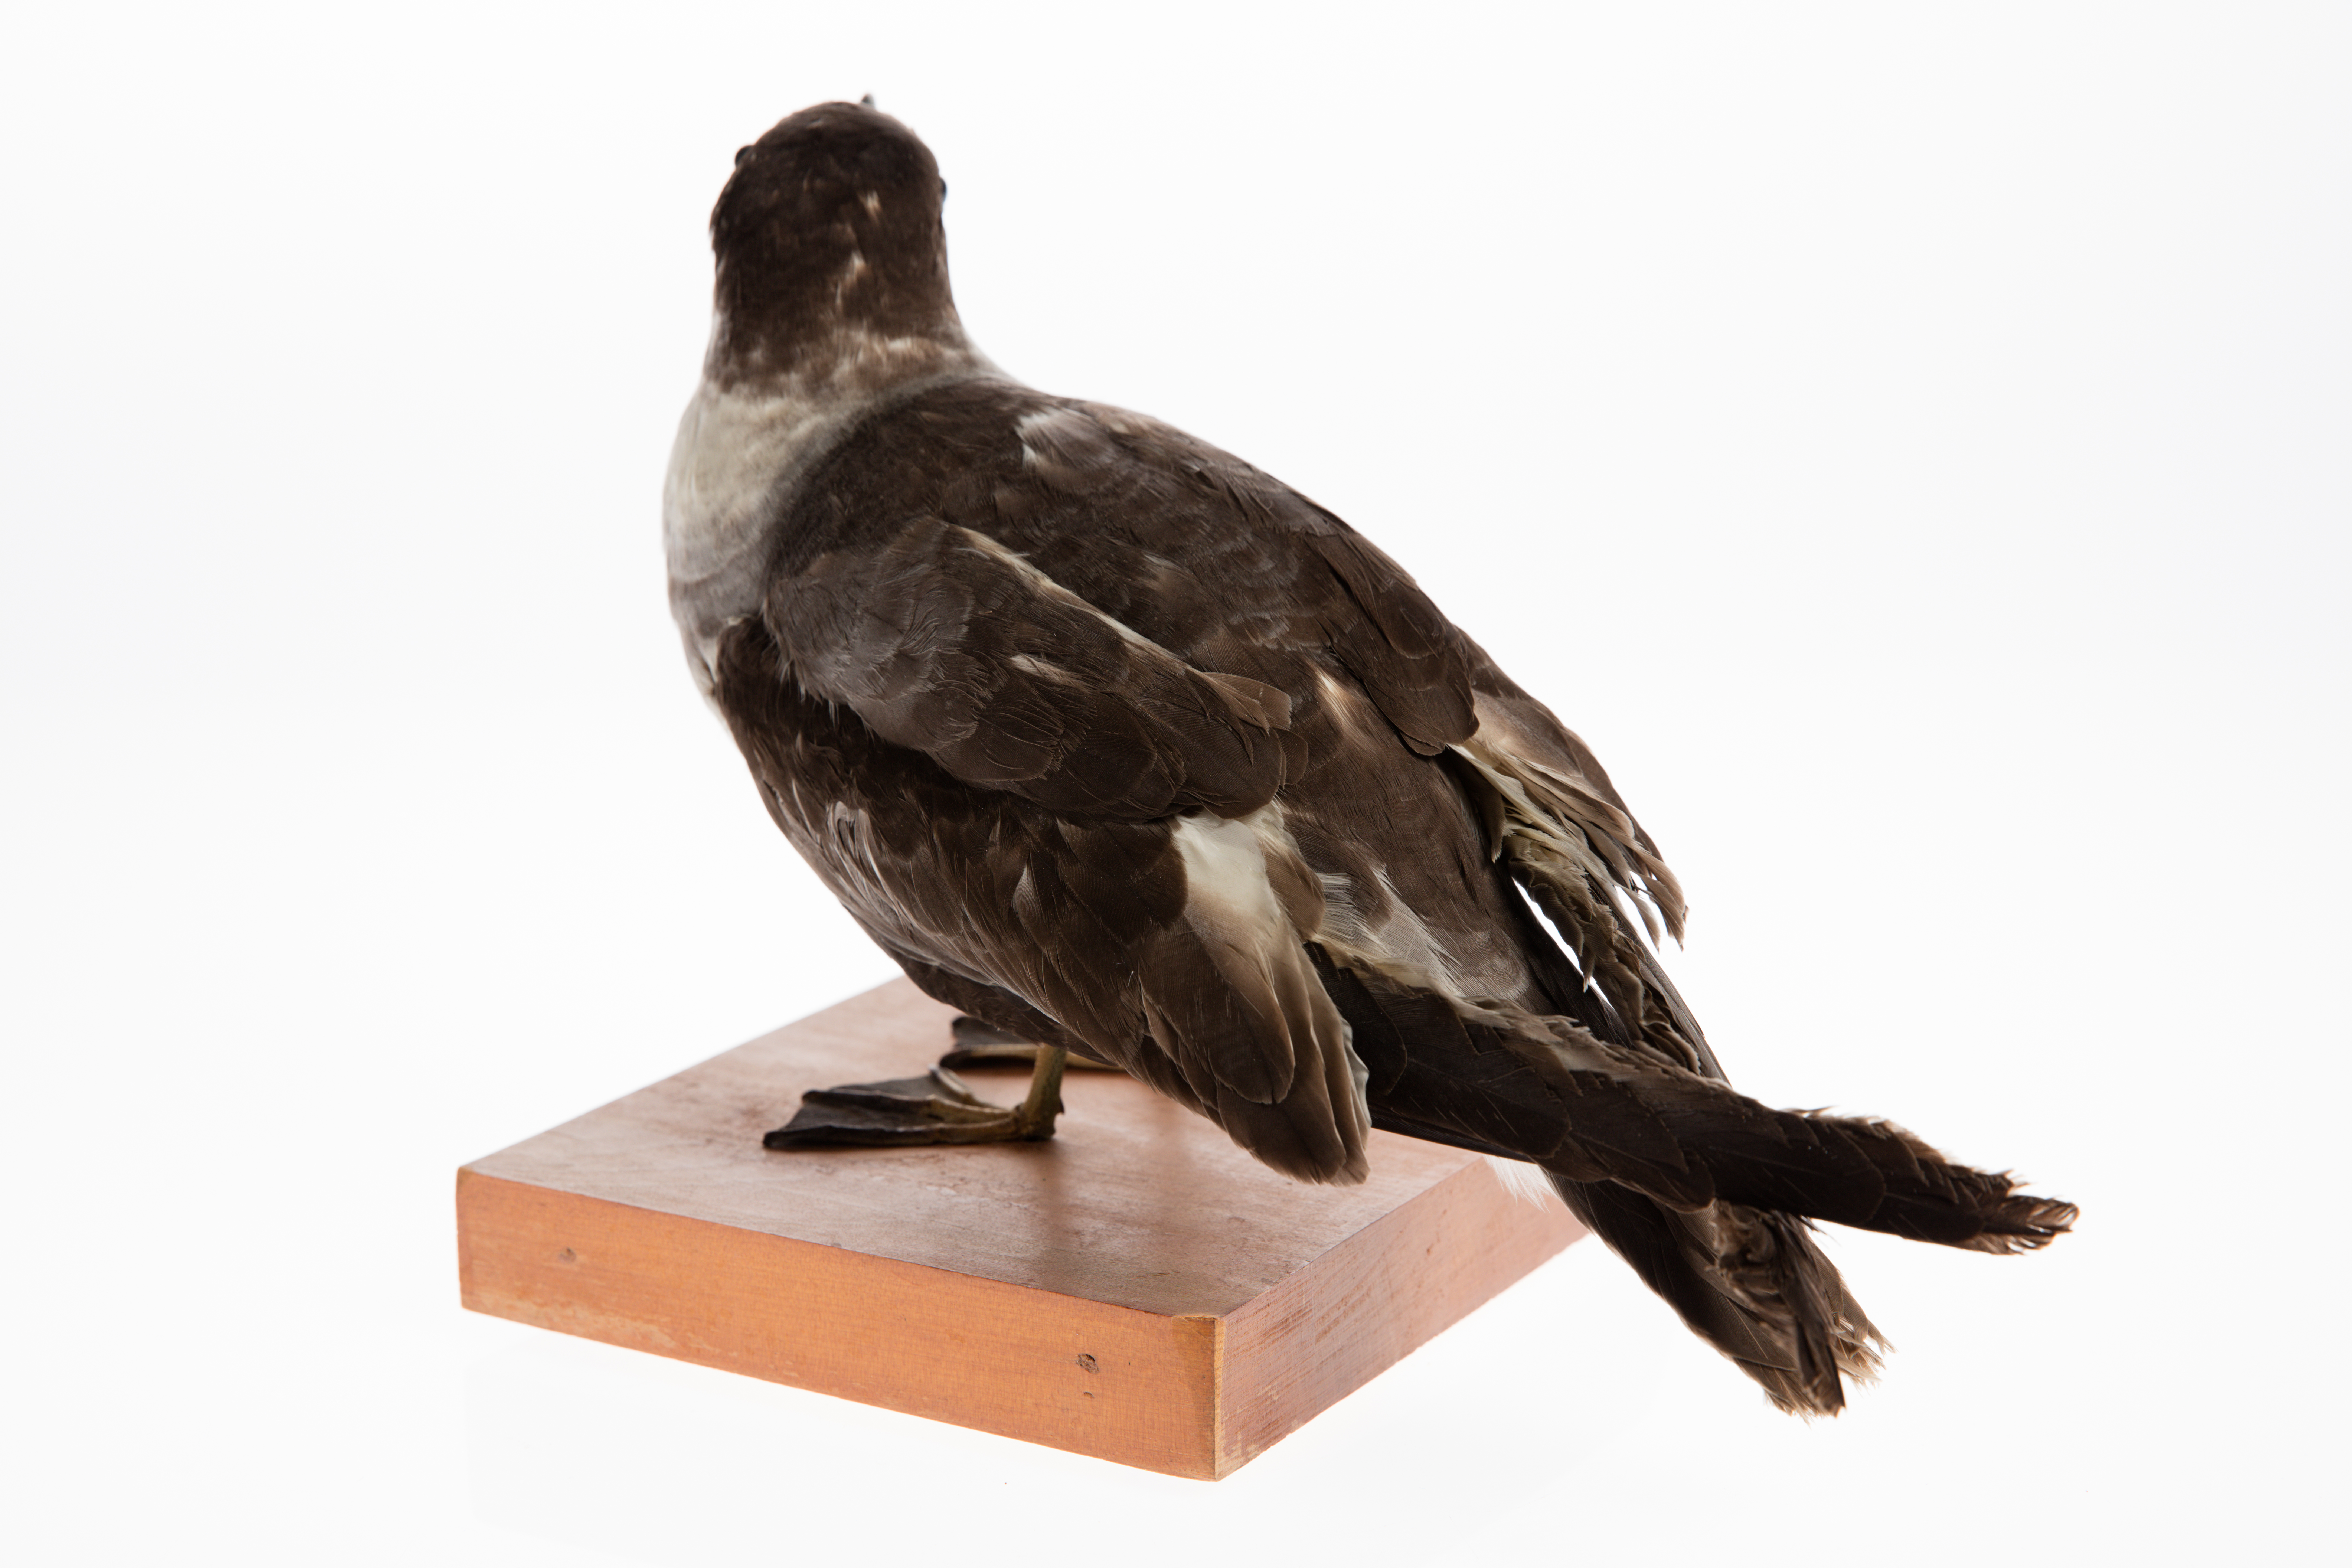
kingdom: Animalia
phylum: Chordata
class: Aves
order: Procellariiformes
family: Procellariidae
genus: Pterodroma
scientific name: Pterodroma cervicalis
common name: White-necked petrel
